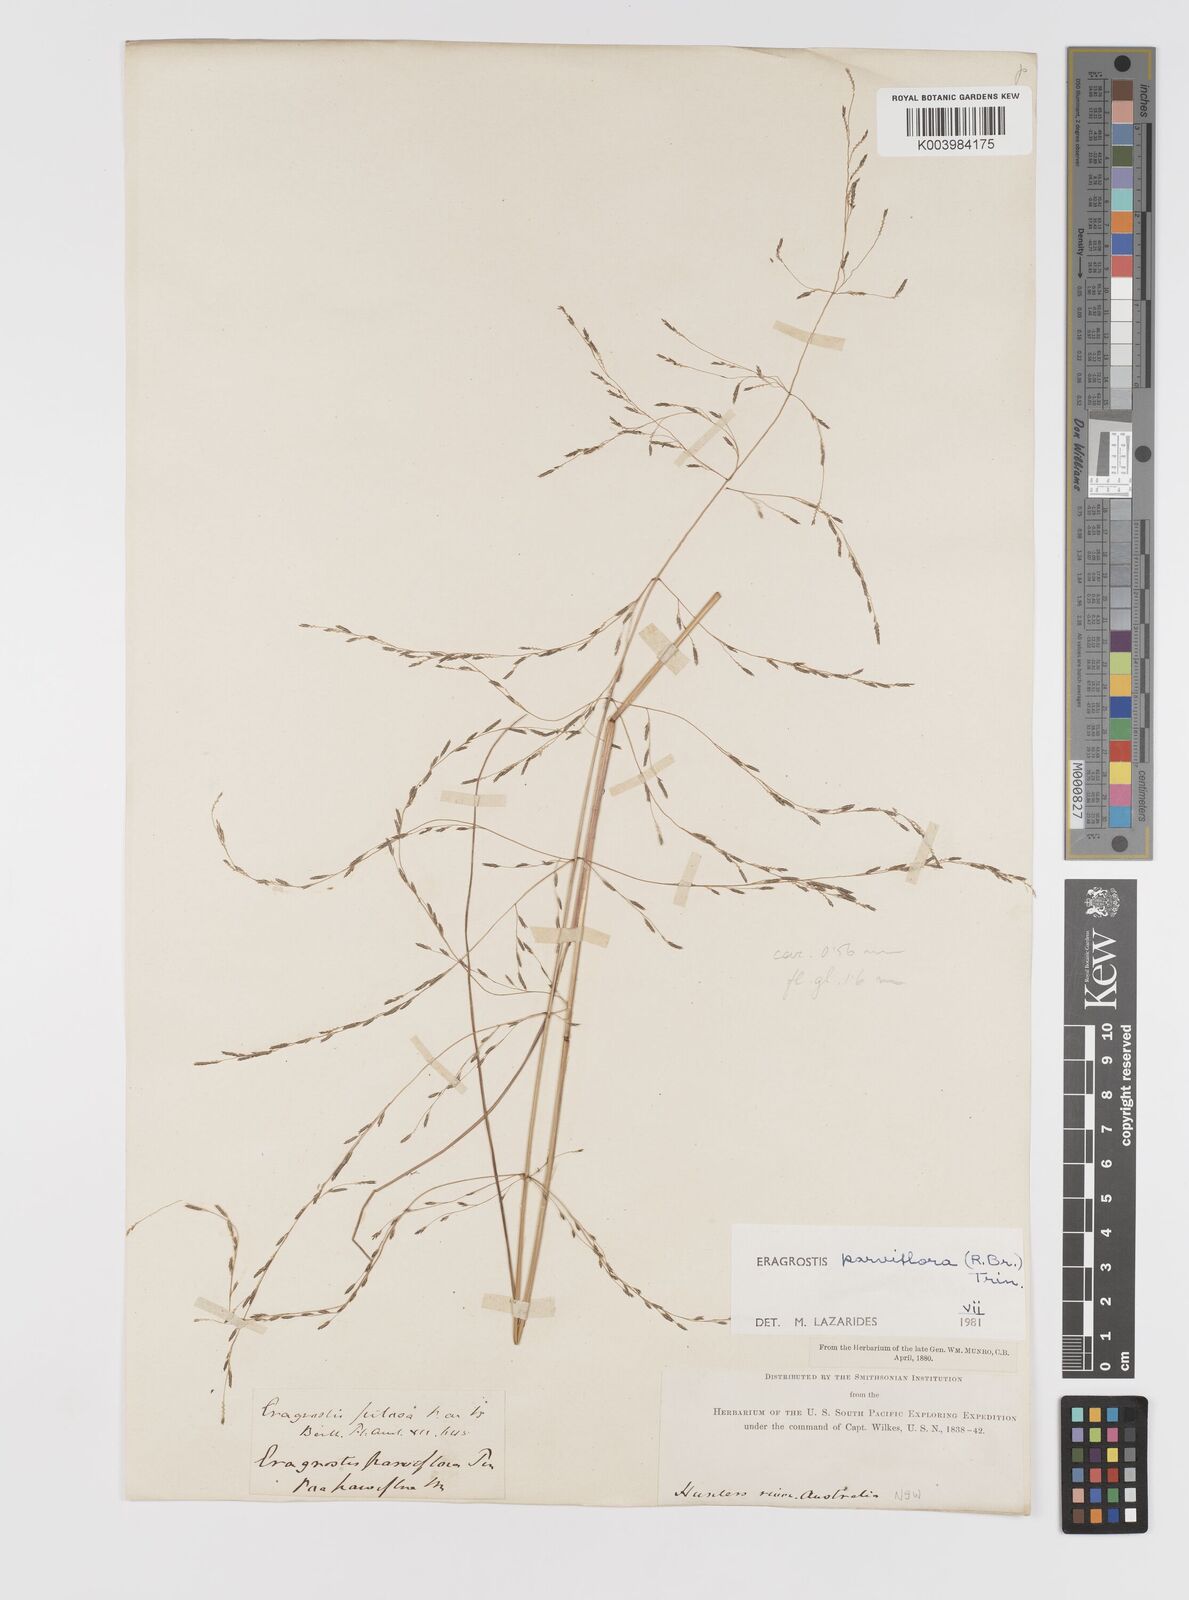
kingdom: Plantae
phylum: Tracheophyta
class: Liliopsida
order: Poales
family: Poaceae
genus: Eragrostis
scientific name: Eragrostis parviflora
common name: Weeping love-grass
